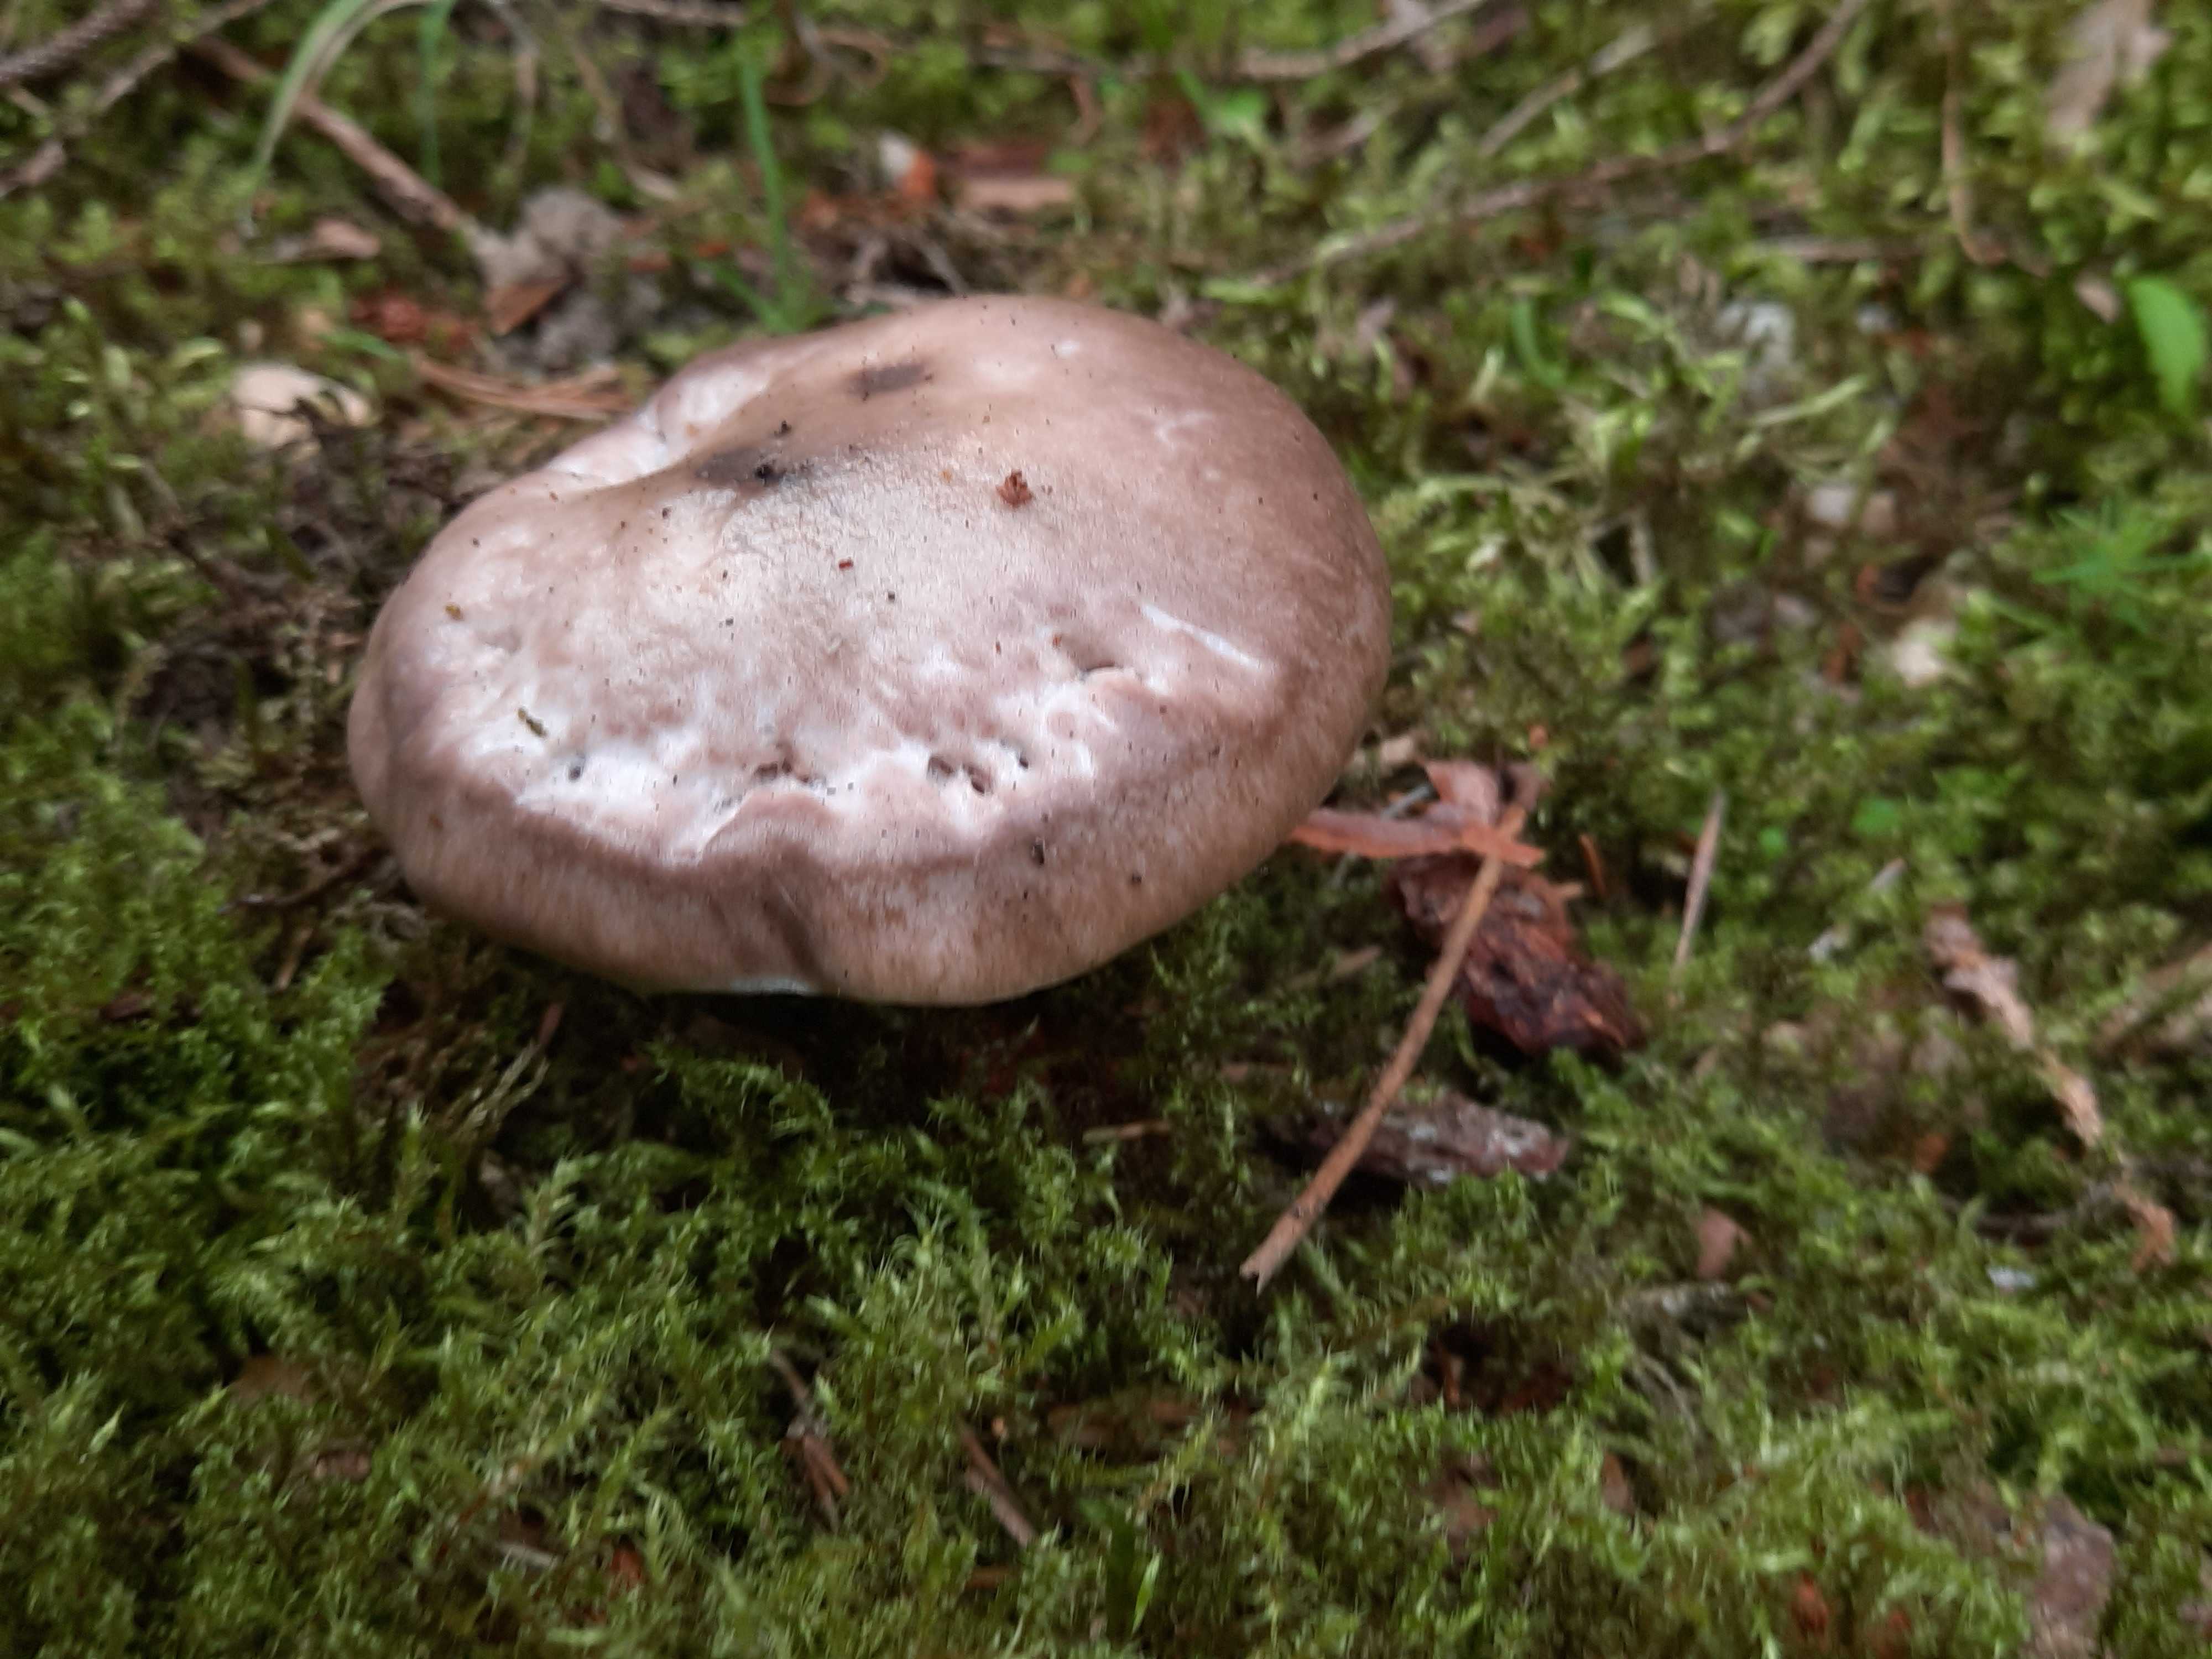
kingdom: Fungi
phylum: Basidiomycota
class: Agaricomycetes
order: Boletales
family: Gomphidiaceae
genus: Gomphidius
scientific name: Gomphidius glutinosus
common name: grå slimslør
